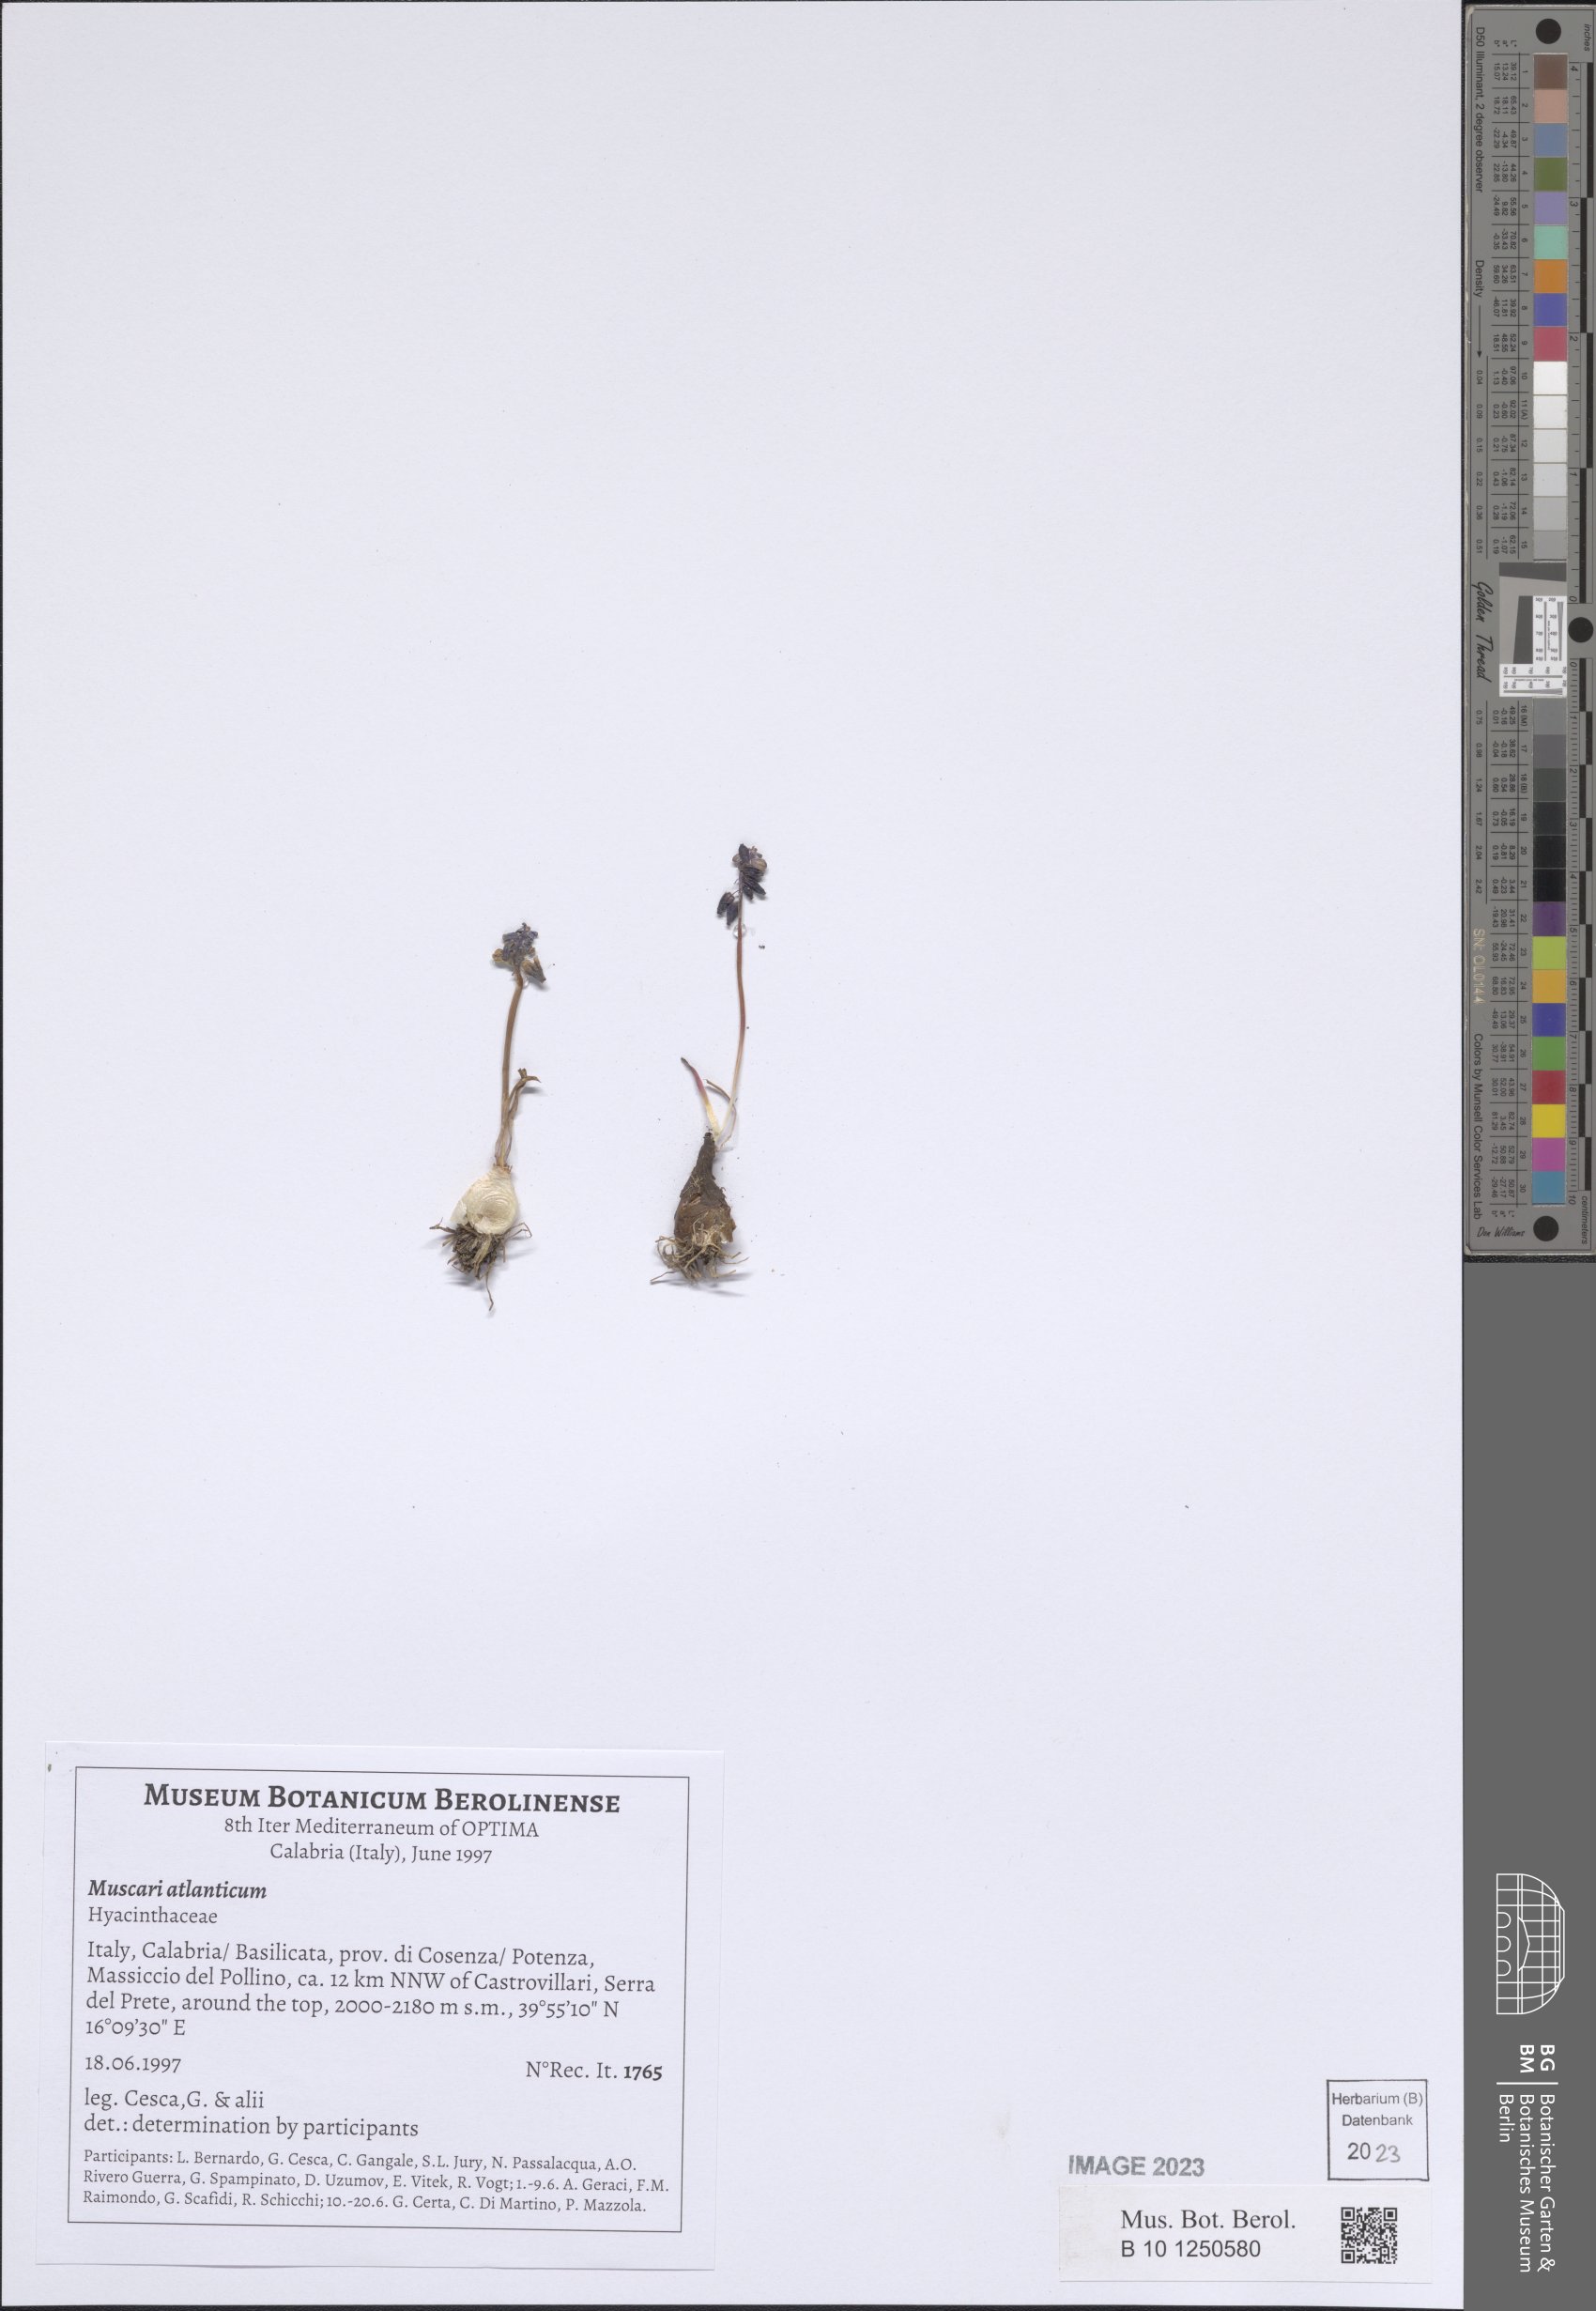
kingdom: Plantae
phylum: Tracheophyta
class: Liliopsida
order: Asparagales
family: Asparagaceae
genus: Muscari
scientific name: Muscari atlanticum
